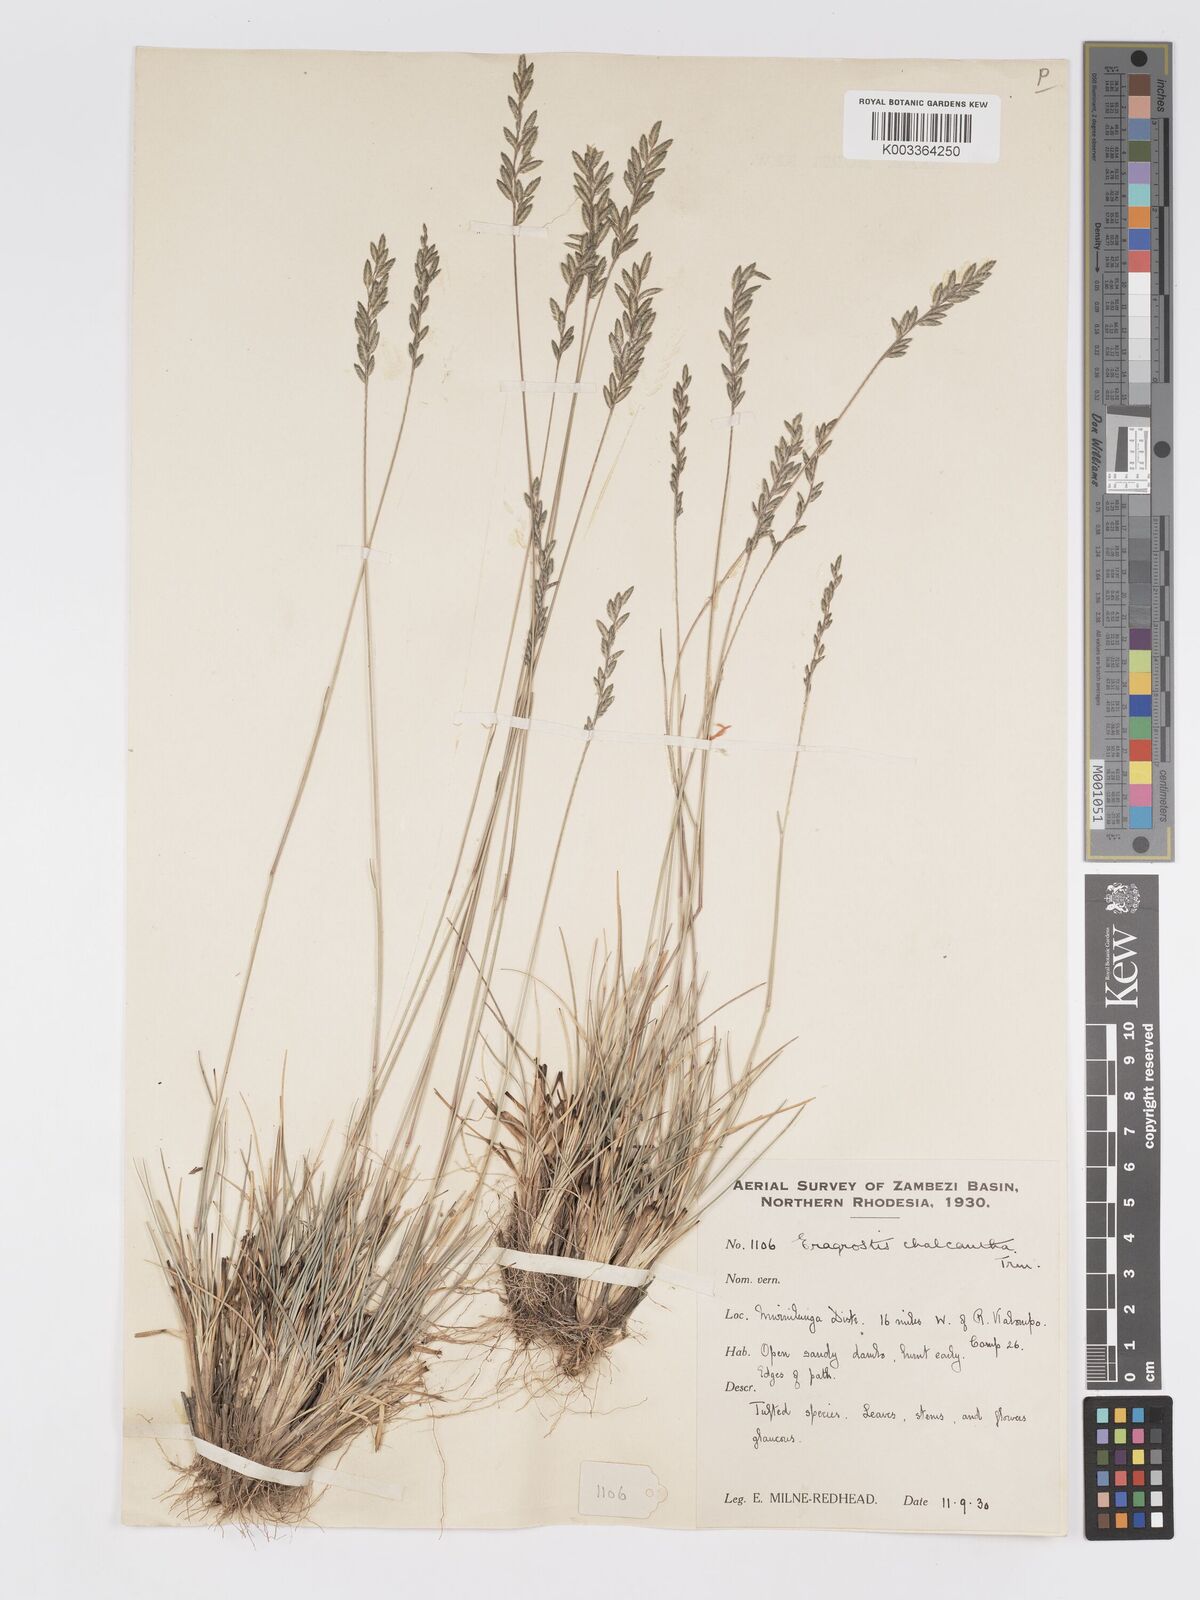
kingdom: Plantae
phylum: Tracheophyta
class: Liliopsida
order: Poales
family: Poaceae
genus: Eragrostis
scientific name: Eragrostis racemosa
